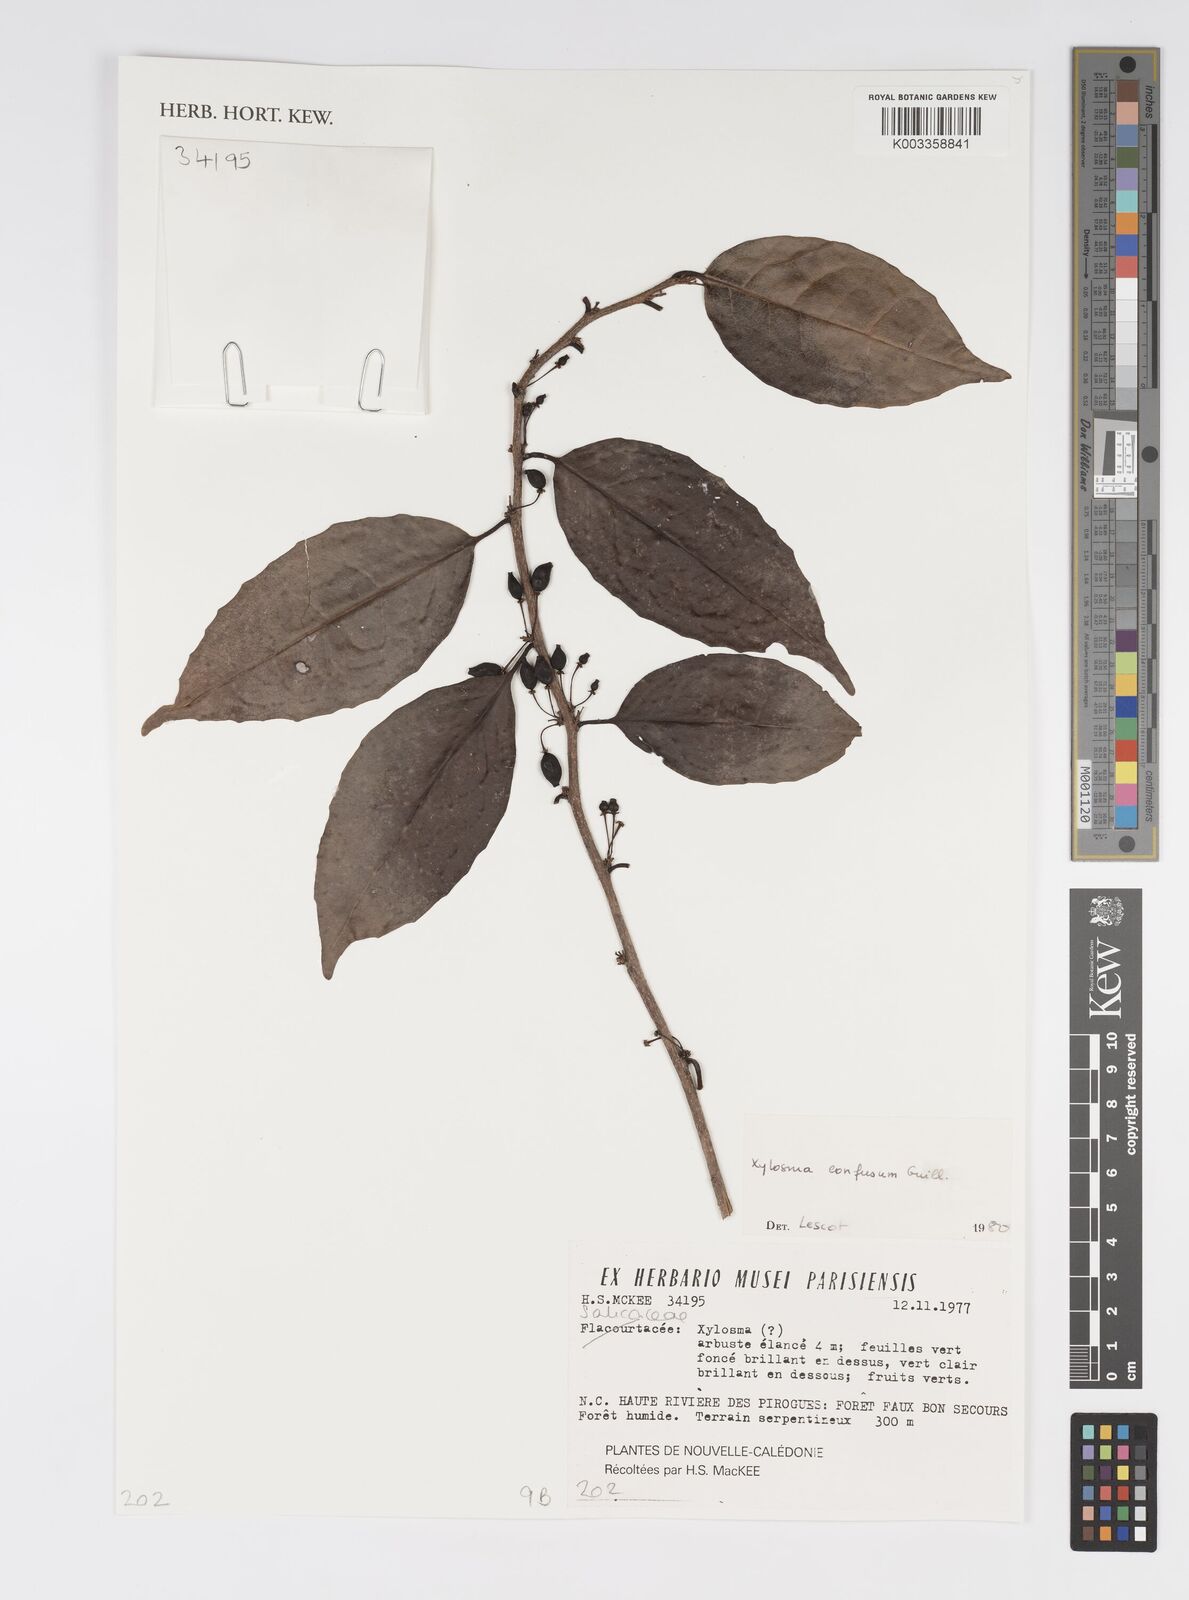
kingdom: Plantae
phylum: Tracheophyta
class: Magnoliopsida
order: Malpighiales
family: Salicaceae
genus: Xylosma
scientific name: Xylosma confusa
